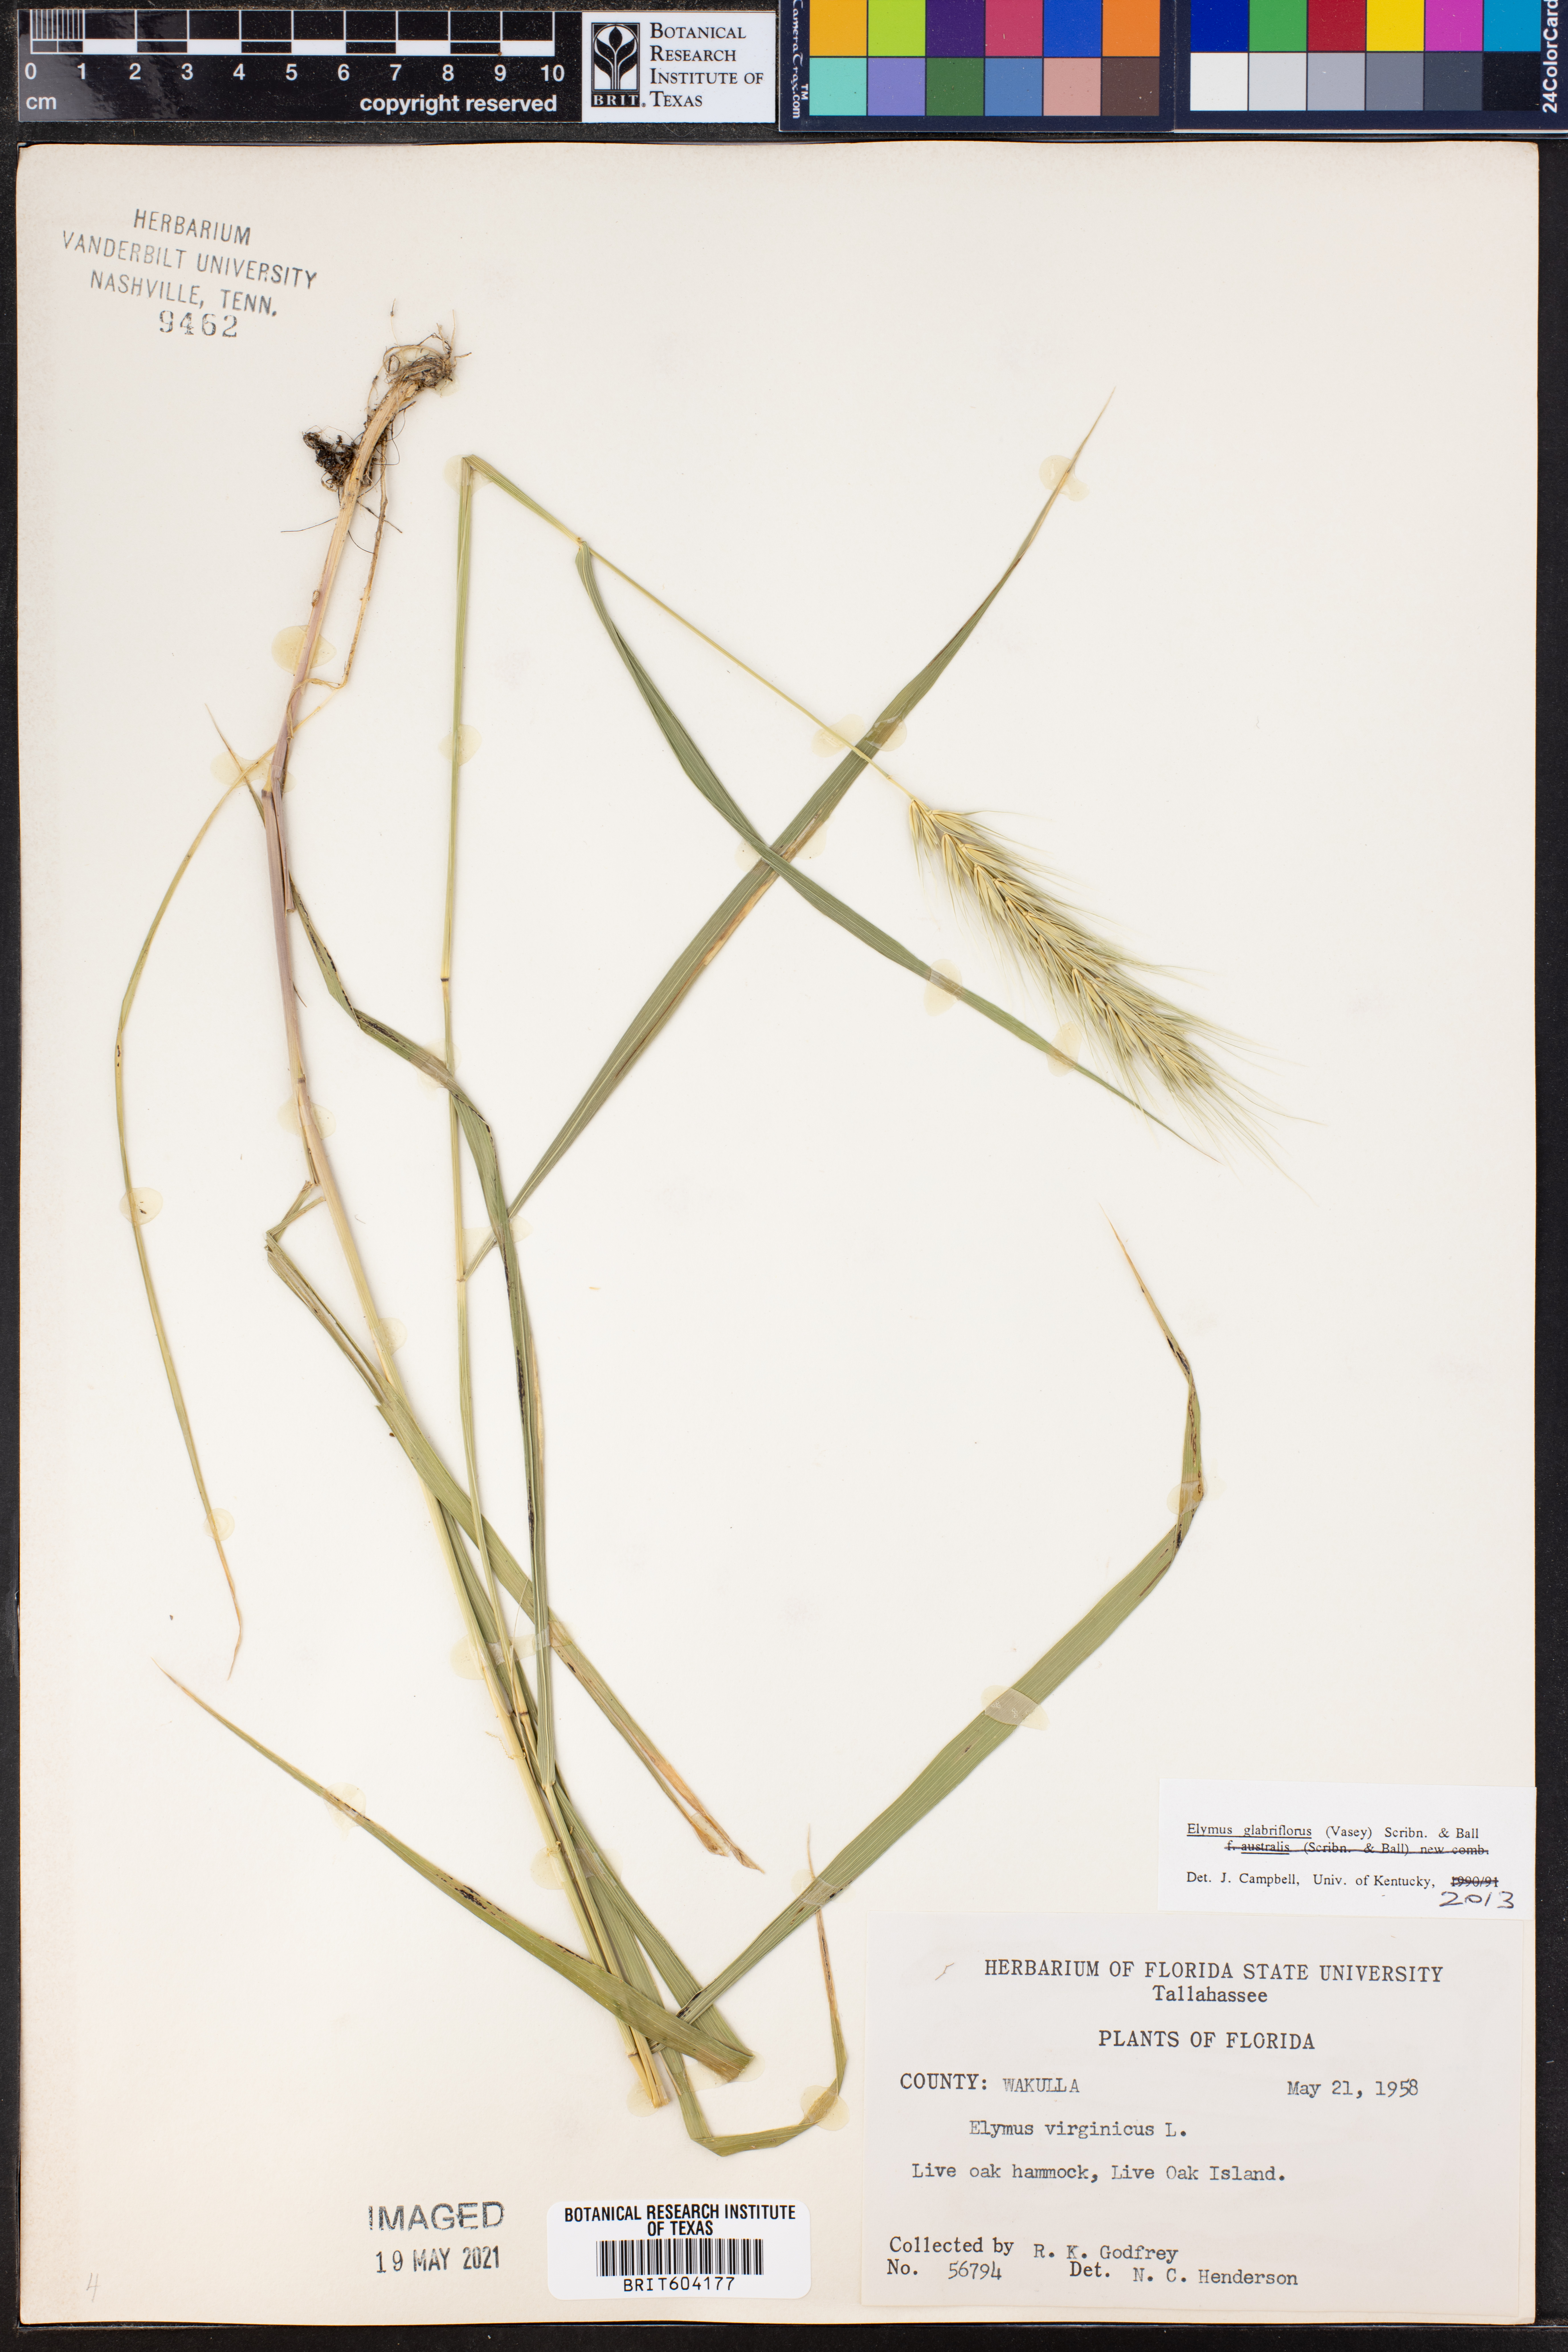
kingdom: Plantae
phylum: Tracheophyta
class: Liliopsida
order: Poales
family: Poaceae
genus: Elymus
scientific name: Elymus virginicus
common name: Common eastern wildrye
